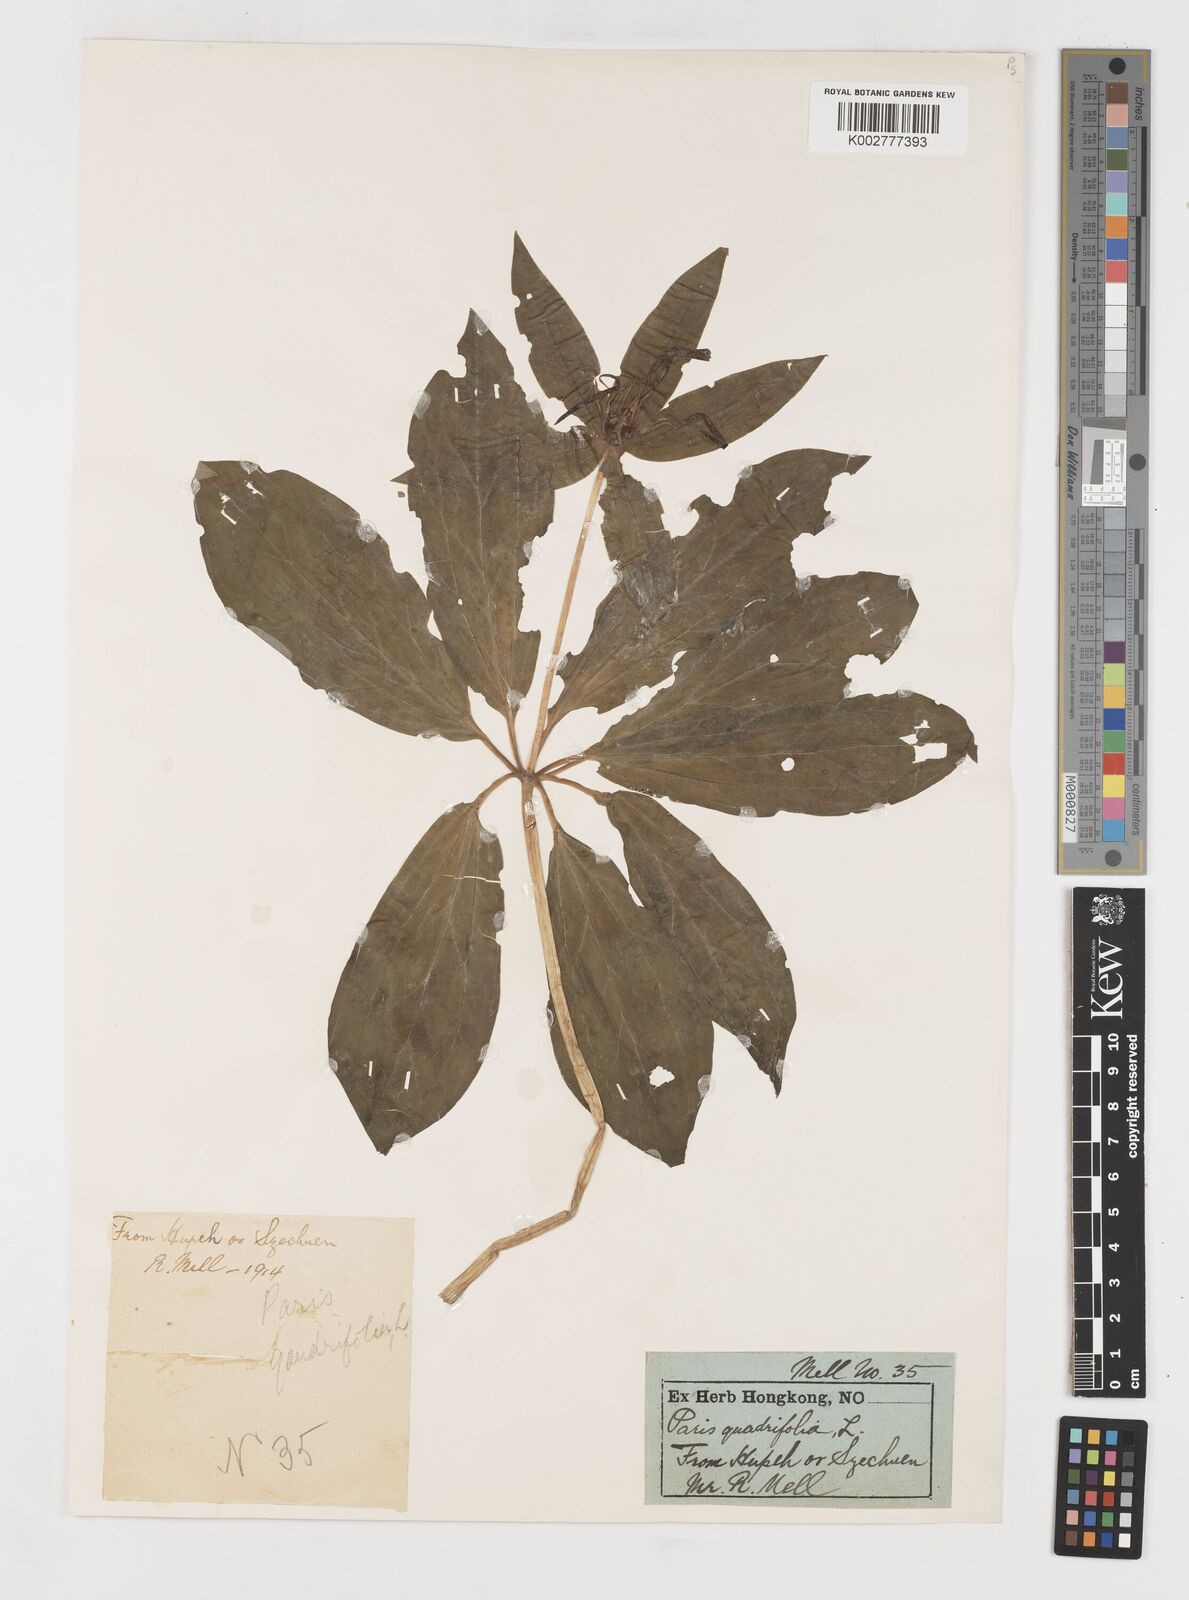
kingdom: Plantae
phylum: Tracheophyta
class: Liliopsida
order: Liliales
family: Melanthiaceae
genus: Paris
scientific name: Paris quadrifolia
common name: Herb-paris
